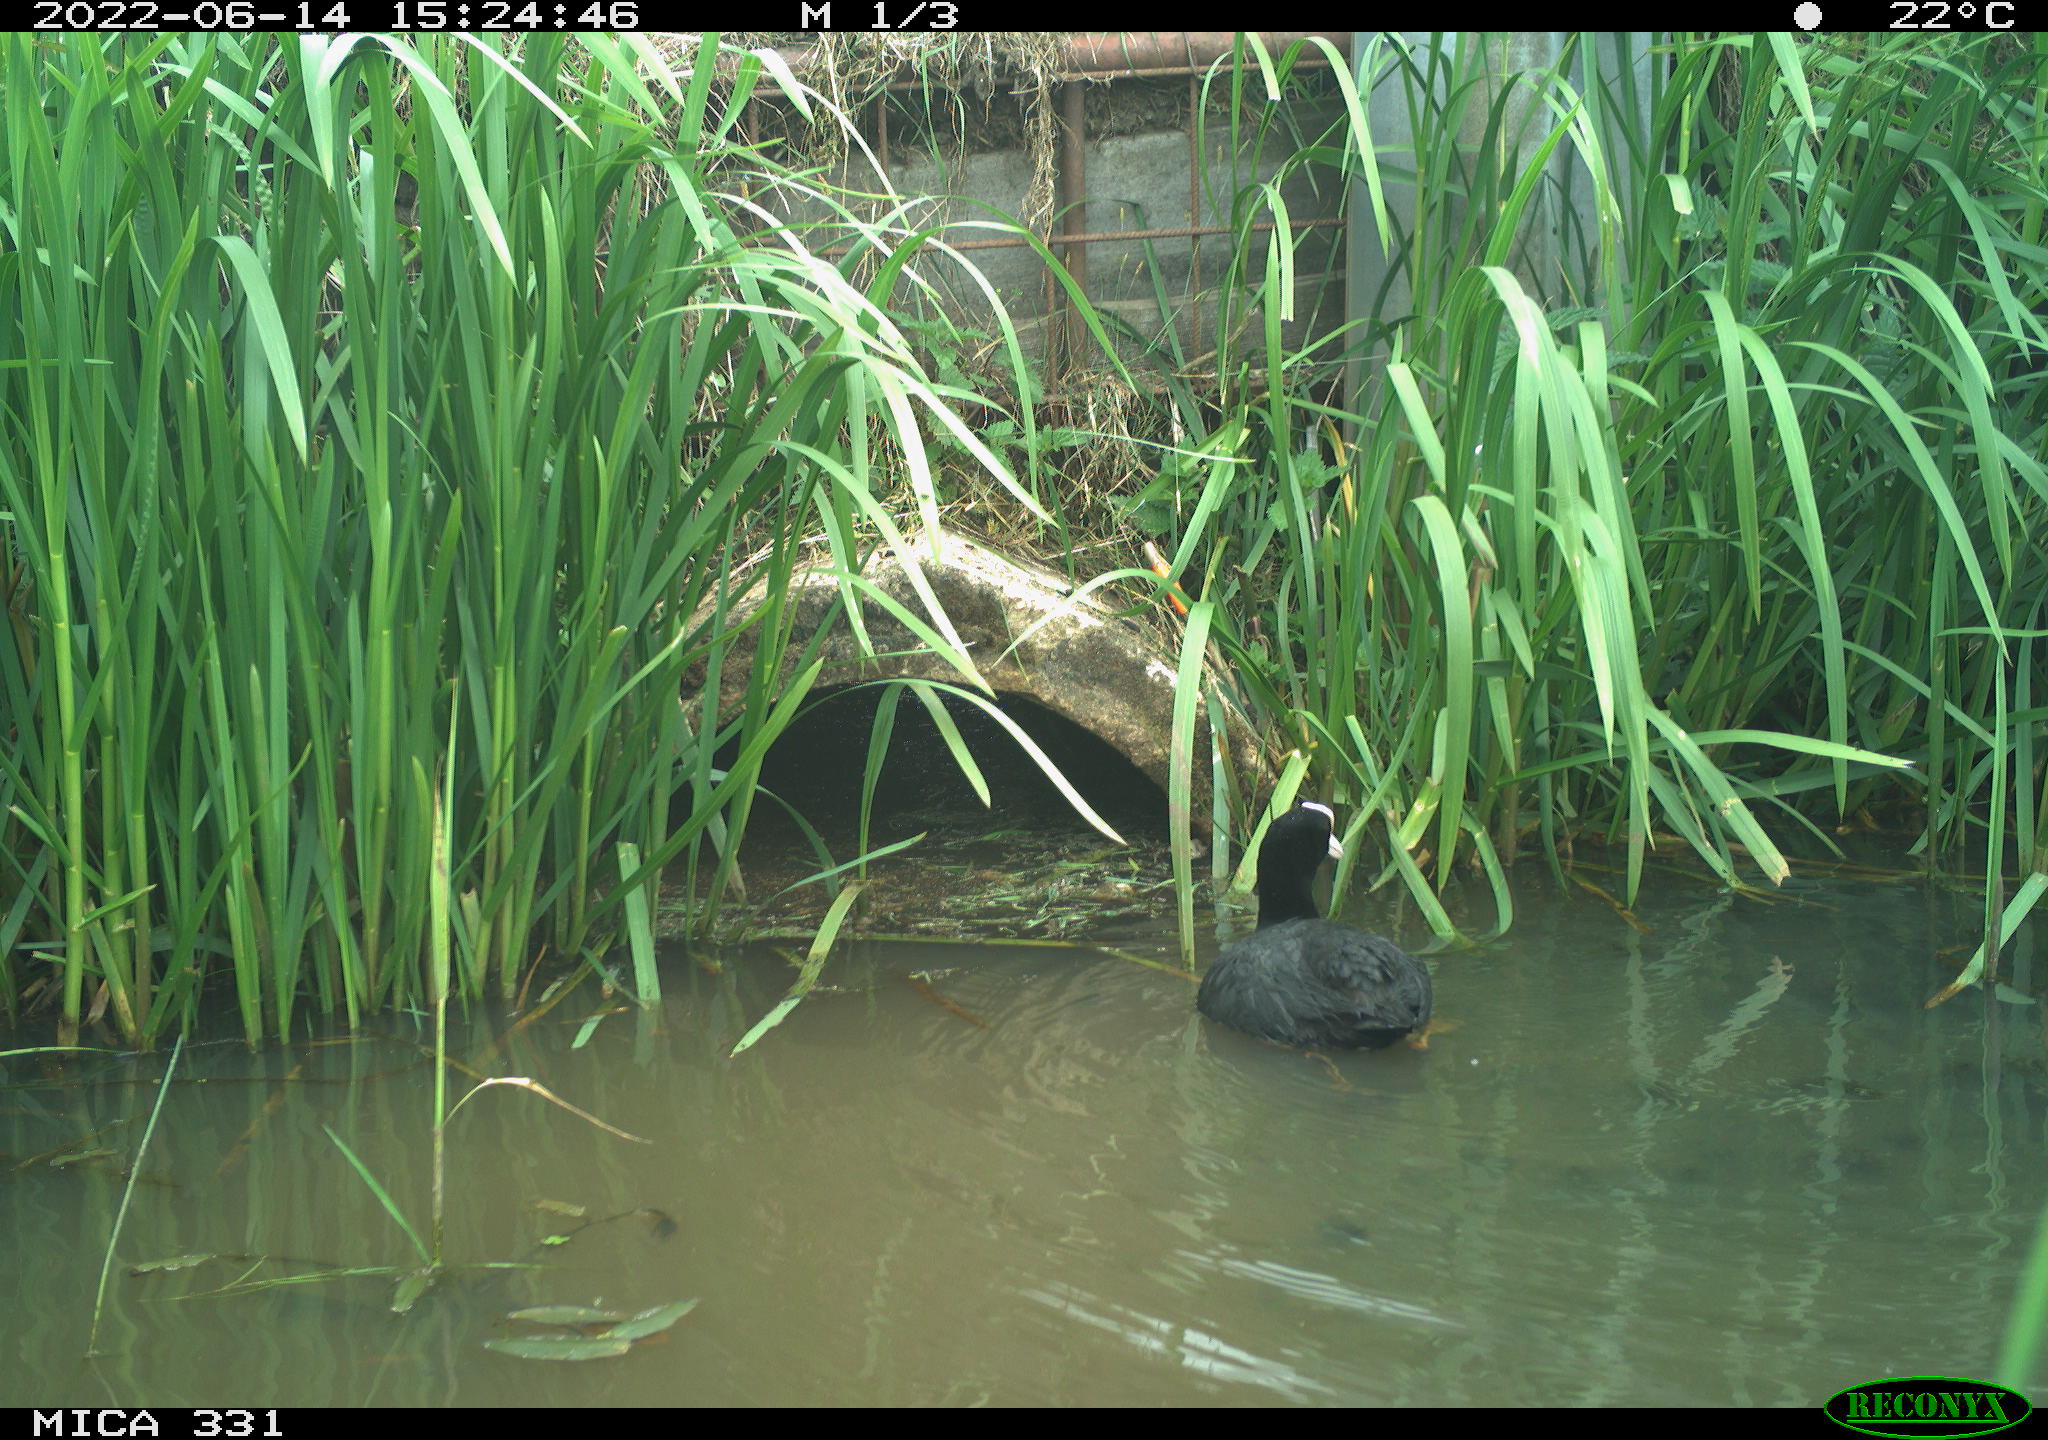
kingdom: Animalia
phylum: Chordata
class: Aves
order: Gruiformes
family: Rallidae
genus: Fulica
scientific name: Fulica atra
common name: Eurasian coot
